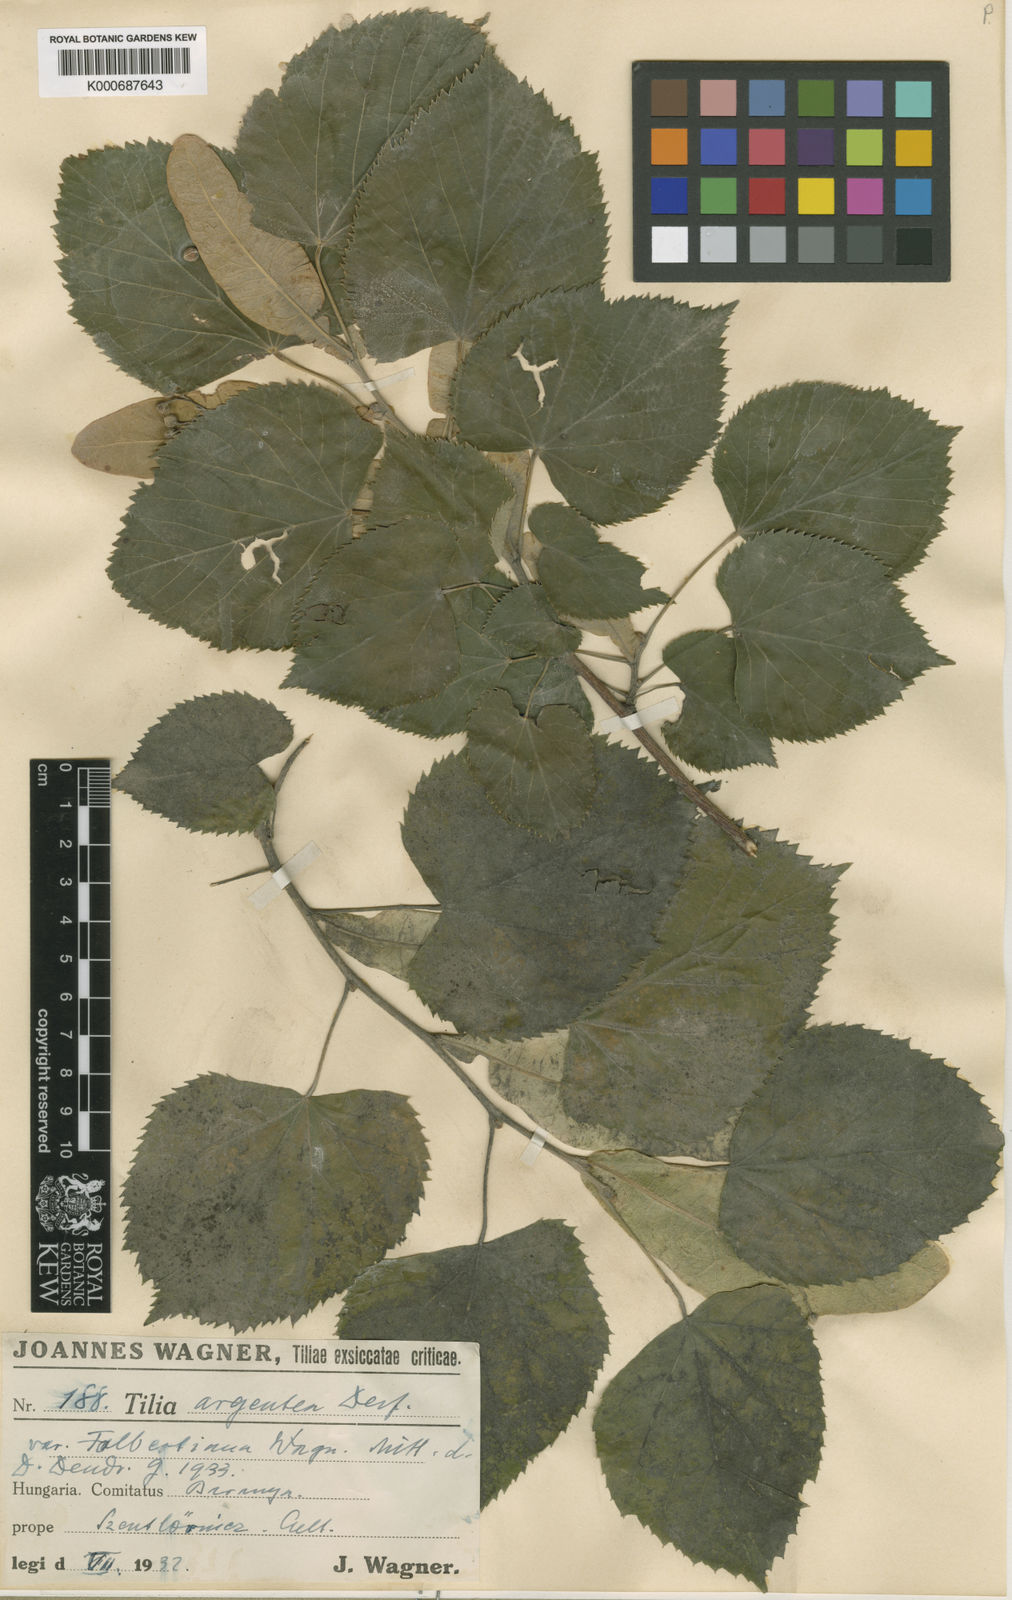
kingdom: Plantae
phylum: Tracheophyta
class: Magnoliopsida
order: Malvales
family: Malvaceae
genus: Tilia
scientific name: Tilia tomentosa
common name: Silver lime
